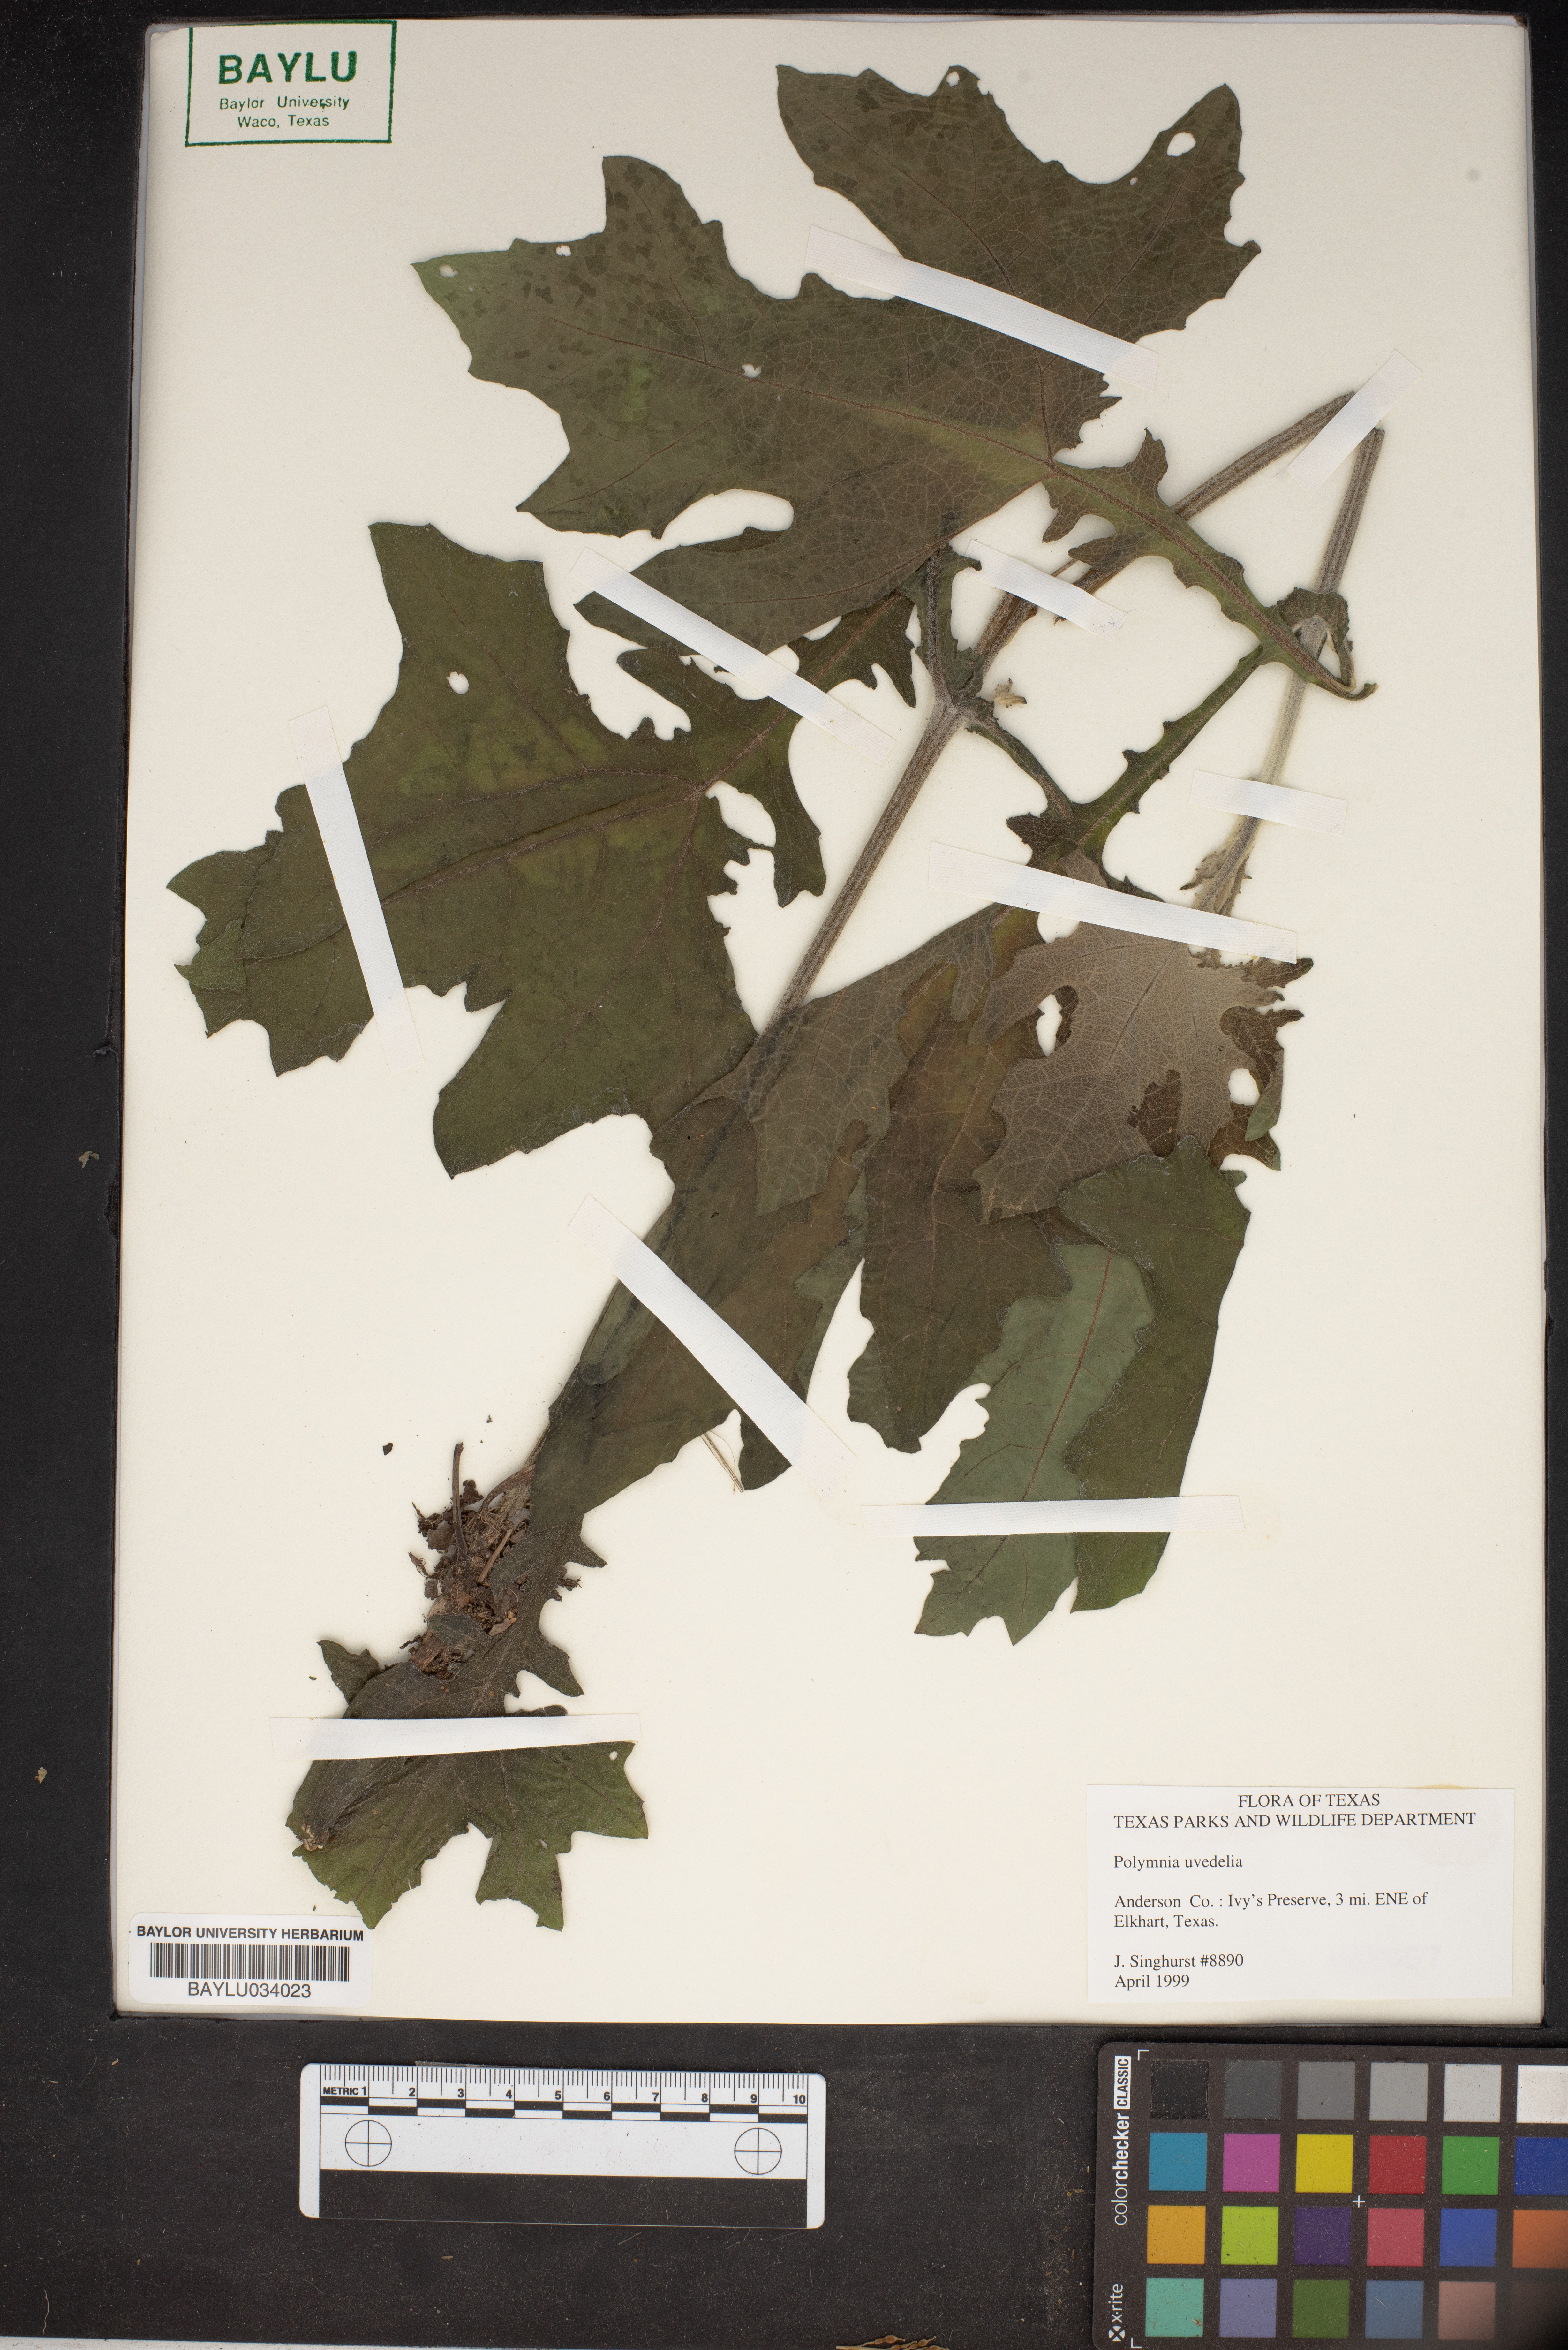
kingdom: Plantae
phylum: Tracheophyta
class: Magnoliopsida
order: Asterales
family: Asteraceae
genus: Smallanthus
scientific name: Smallanthus uvedalia
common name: Bear's-foot
